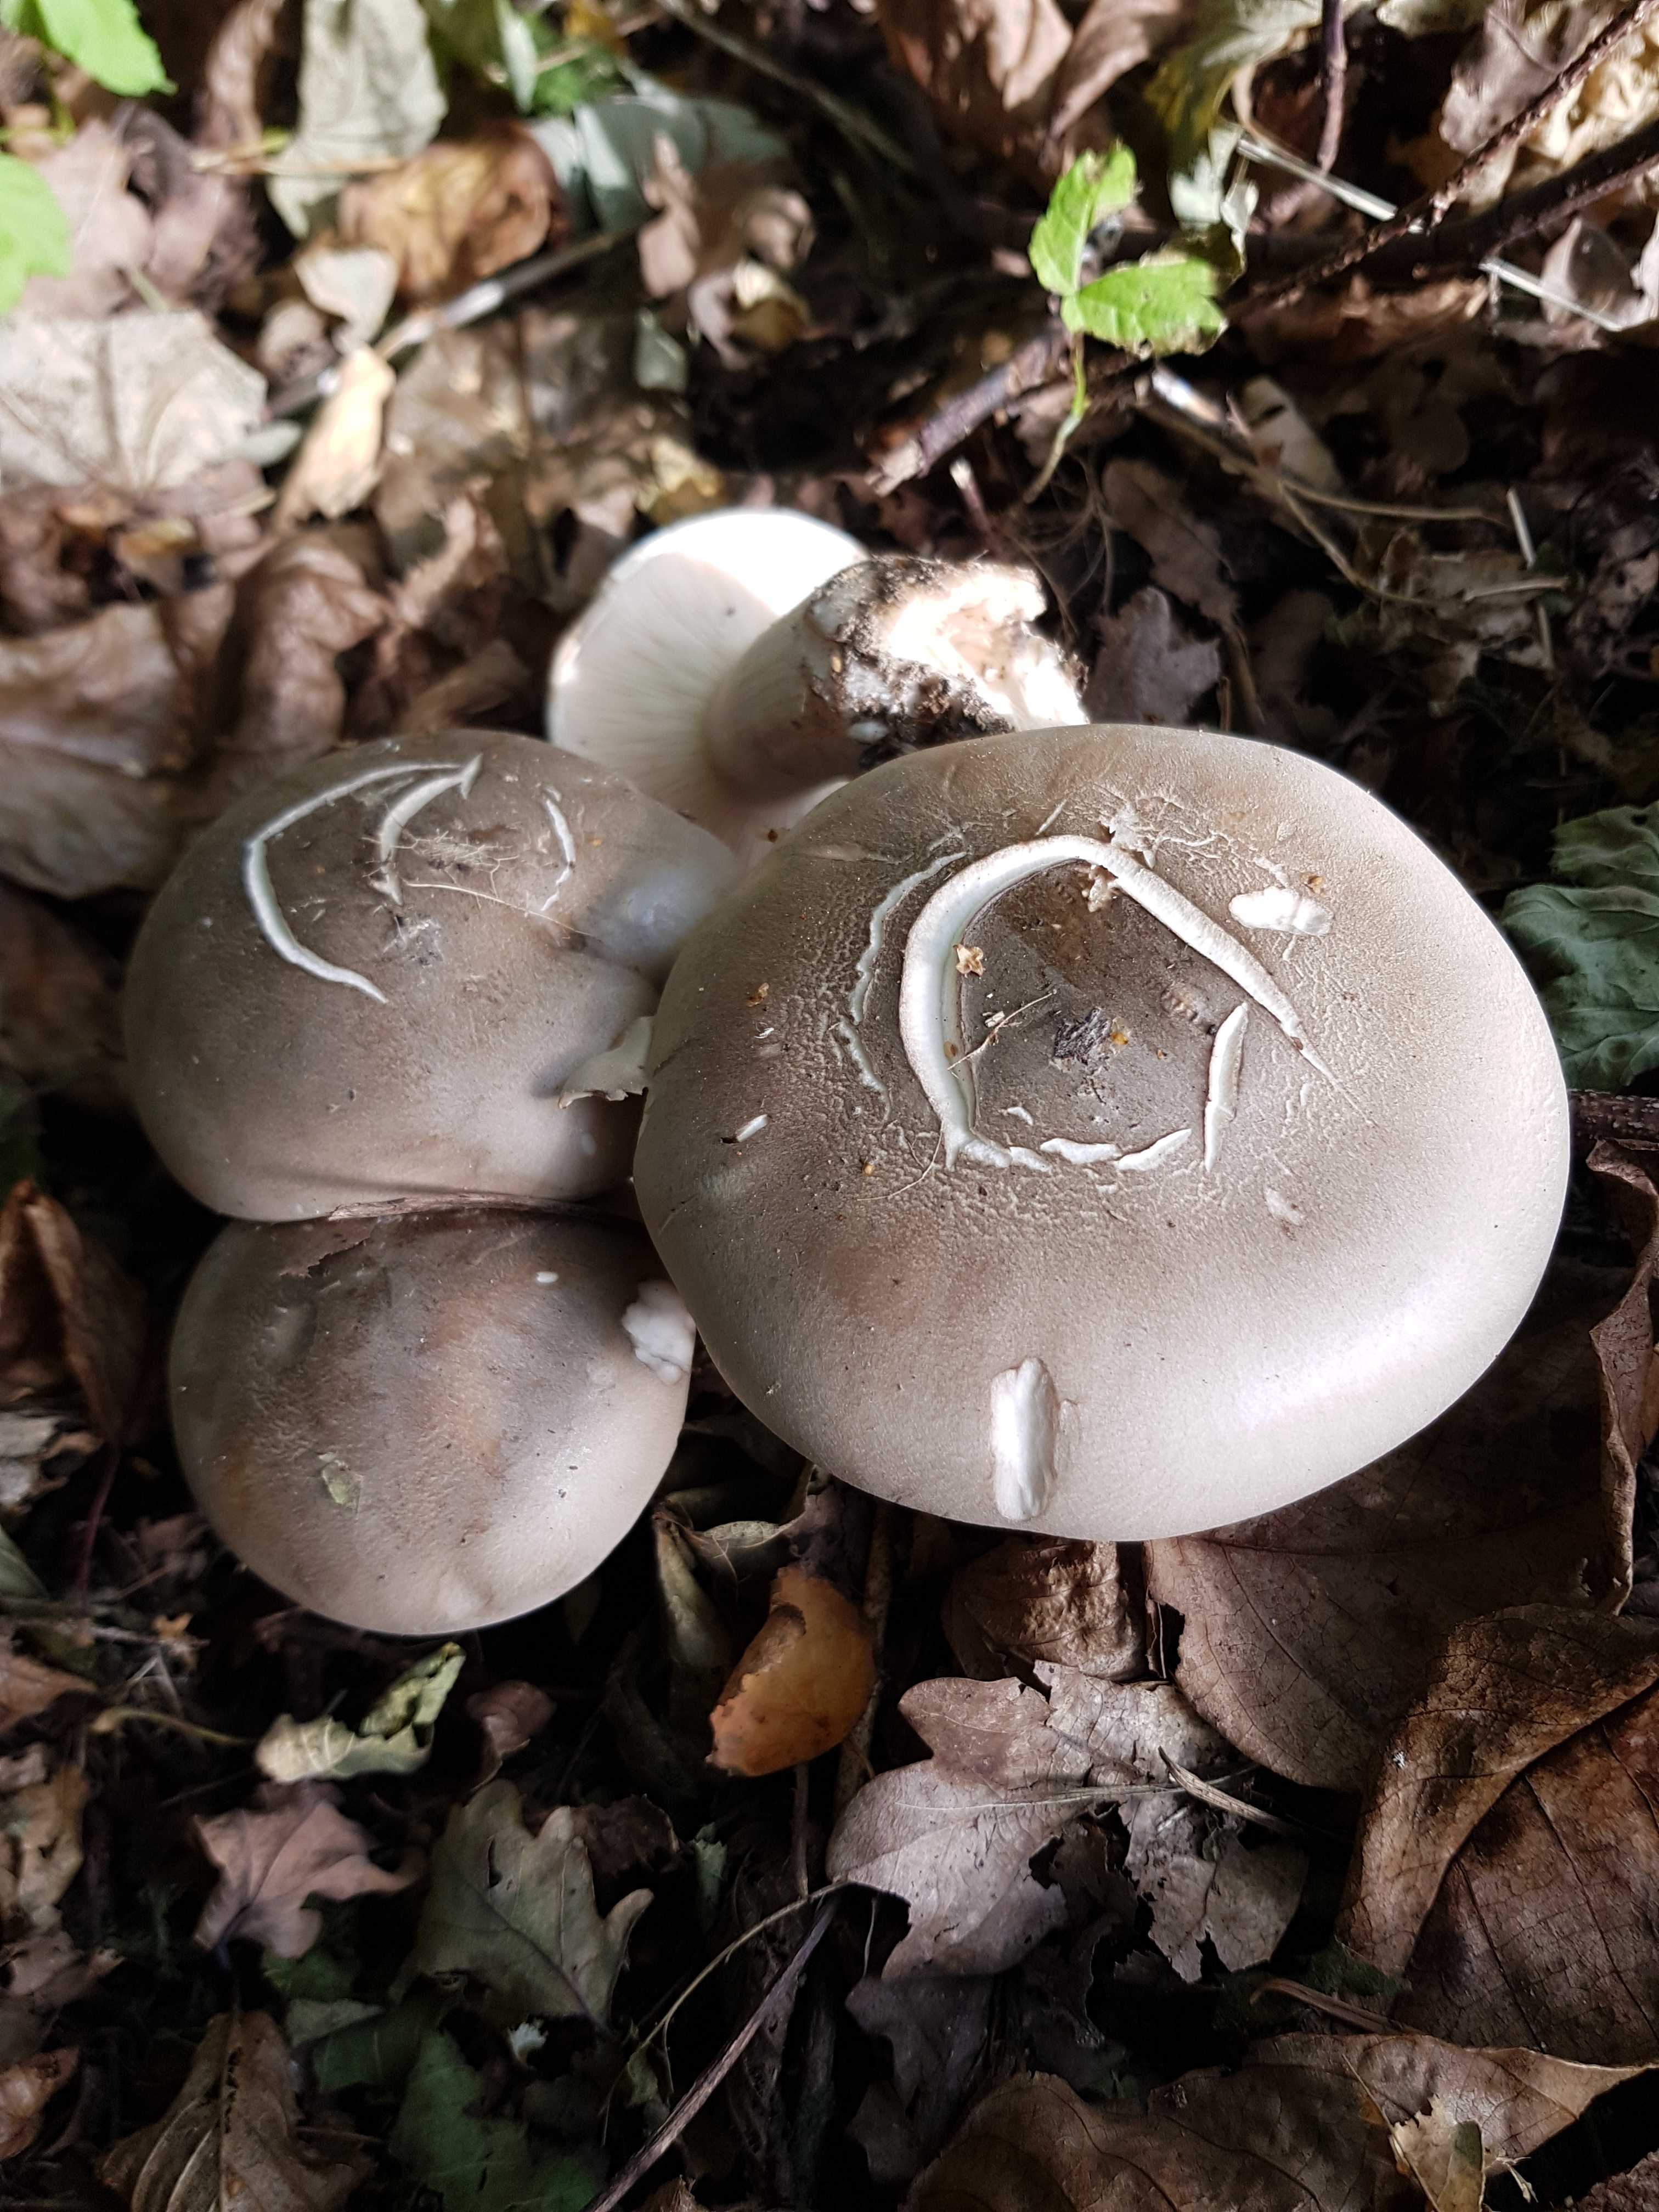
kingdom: Fungi
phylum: Basidiomycota
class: Agaricomycetes
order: Agaricales
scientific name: Agaricales
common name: champignonordenen
